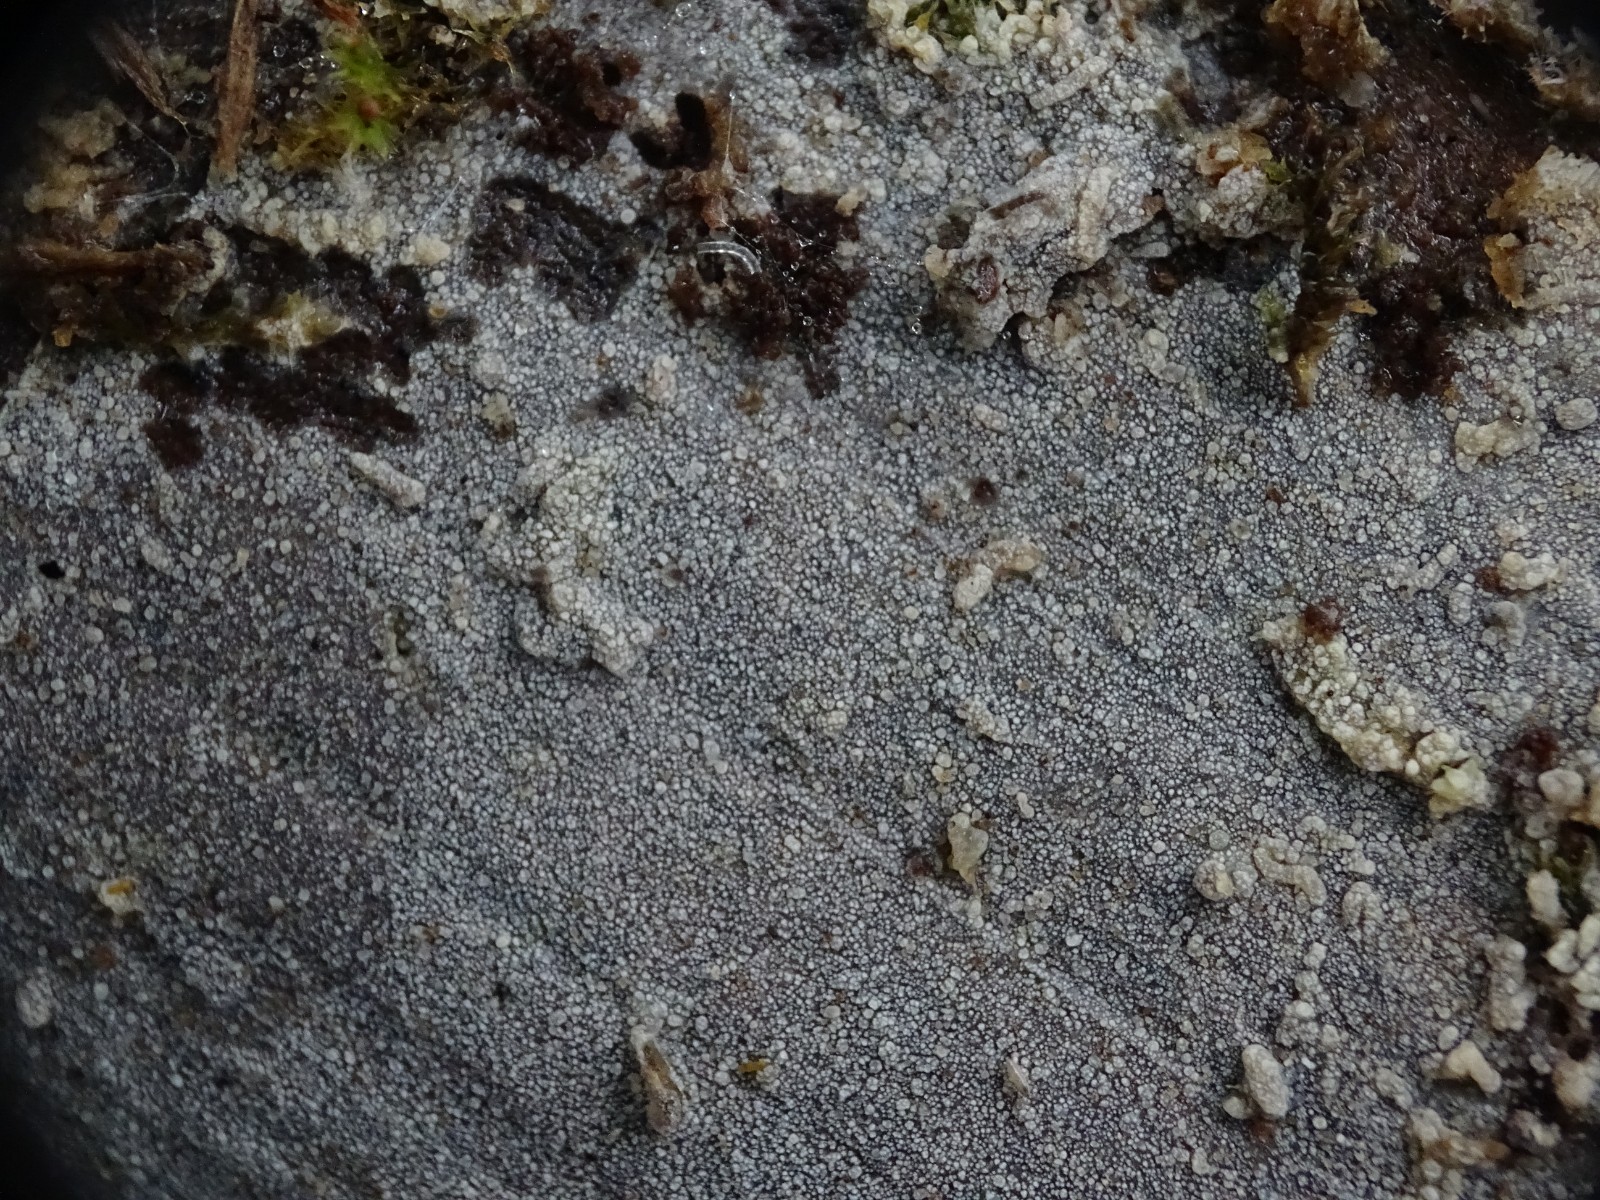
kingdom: Fungi
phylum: Basidiomycota
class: Agaricomycetes
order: Polyporales
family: Meruliaceae
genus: Scopuloides
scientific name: Scopuloides rimosa
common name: dughinde
